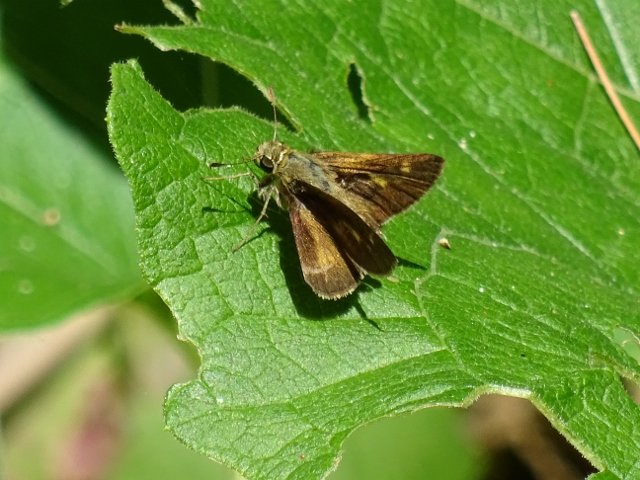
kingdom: Animalia
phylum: Arthropoda
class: Insecta
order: Lepidoptera
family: Hesperiidae
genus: Polites
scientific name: Polites themistocles
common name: Tawny-edged Skipper
